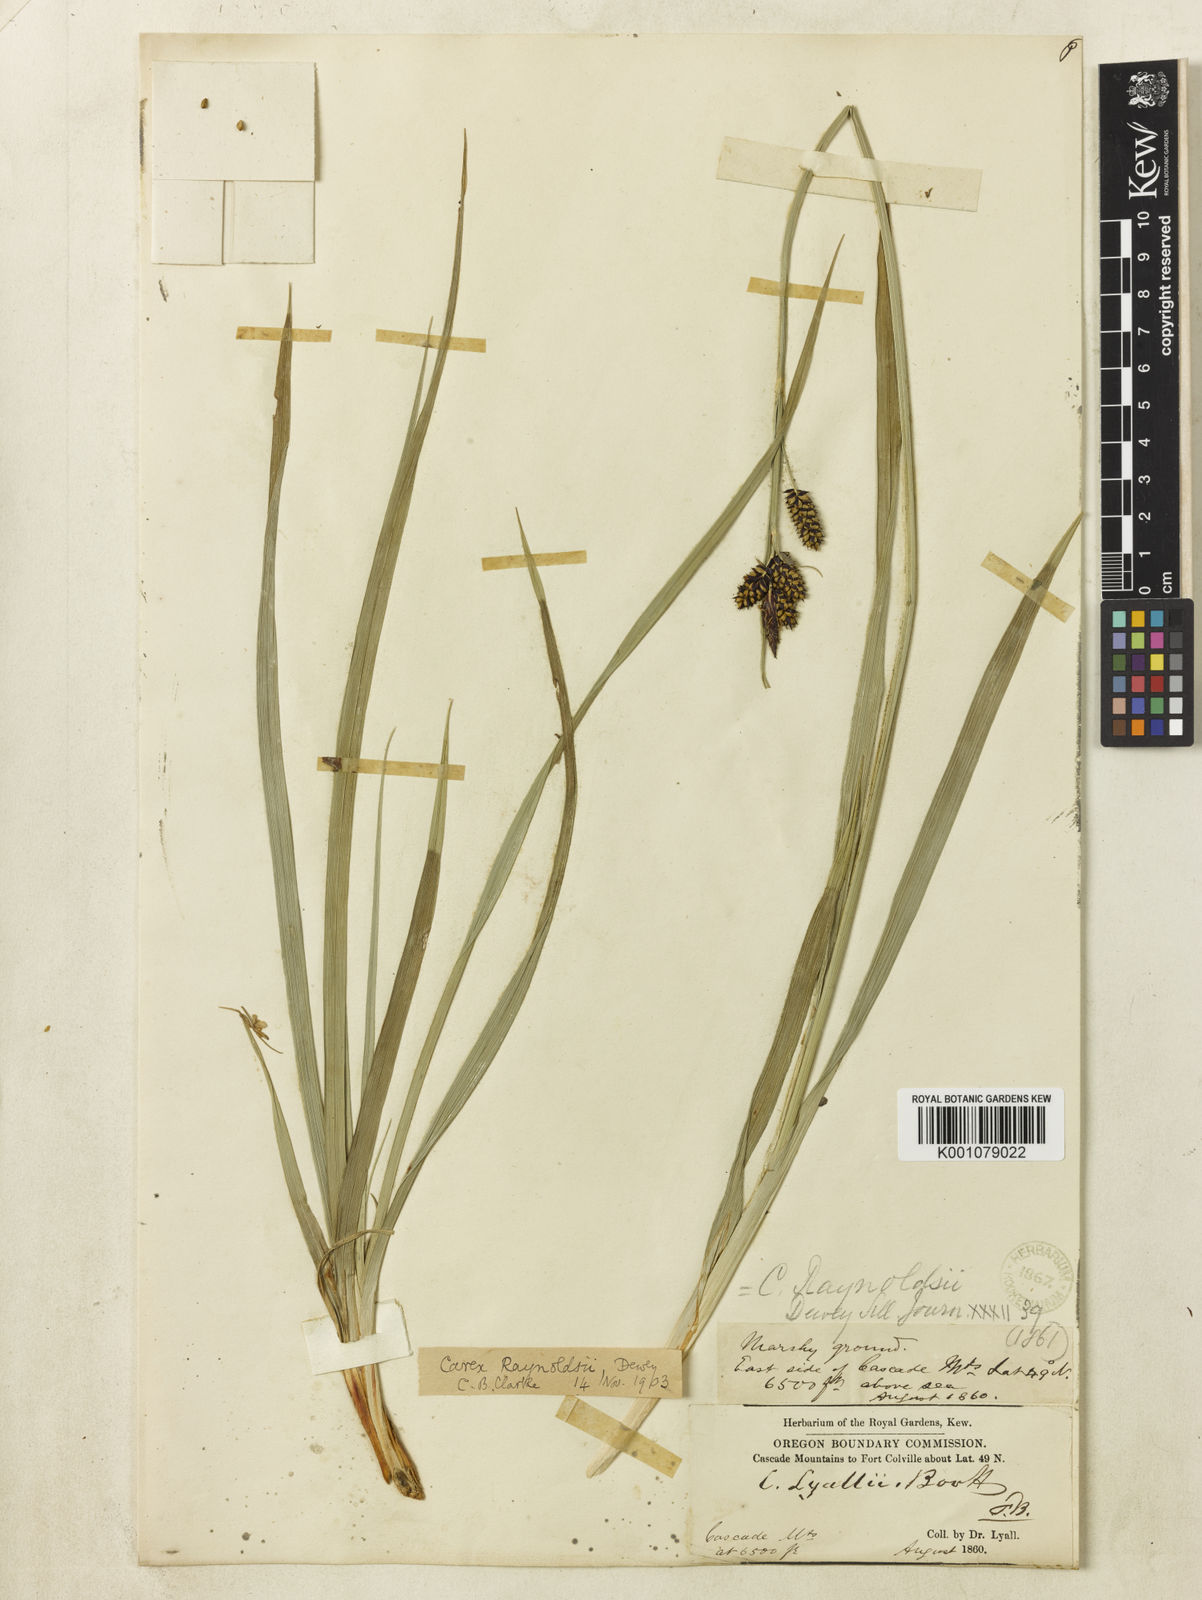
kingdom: Plantae
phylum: Tracheophyta
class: Liliopsida
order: Poales
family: Cyperaceae
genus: Carex
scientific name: Carex raynoldsii
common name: Raynolds' sedge
